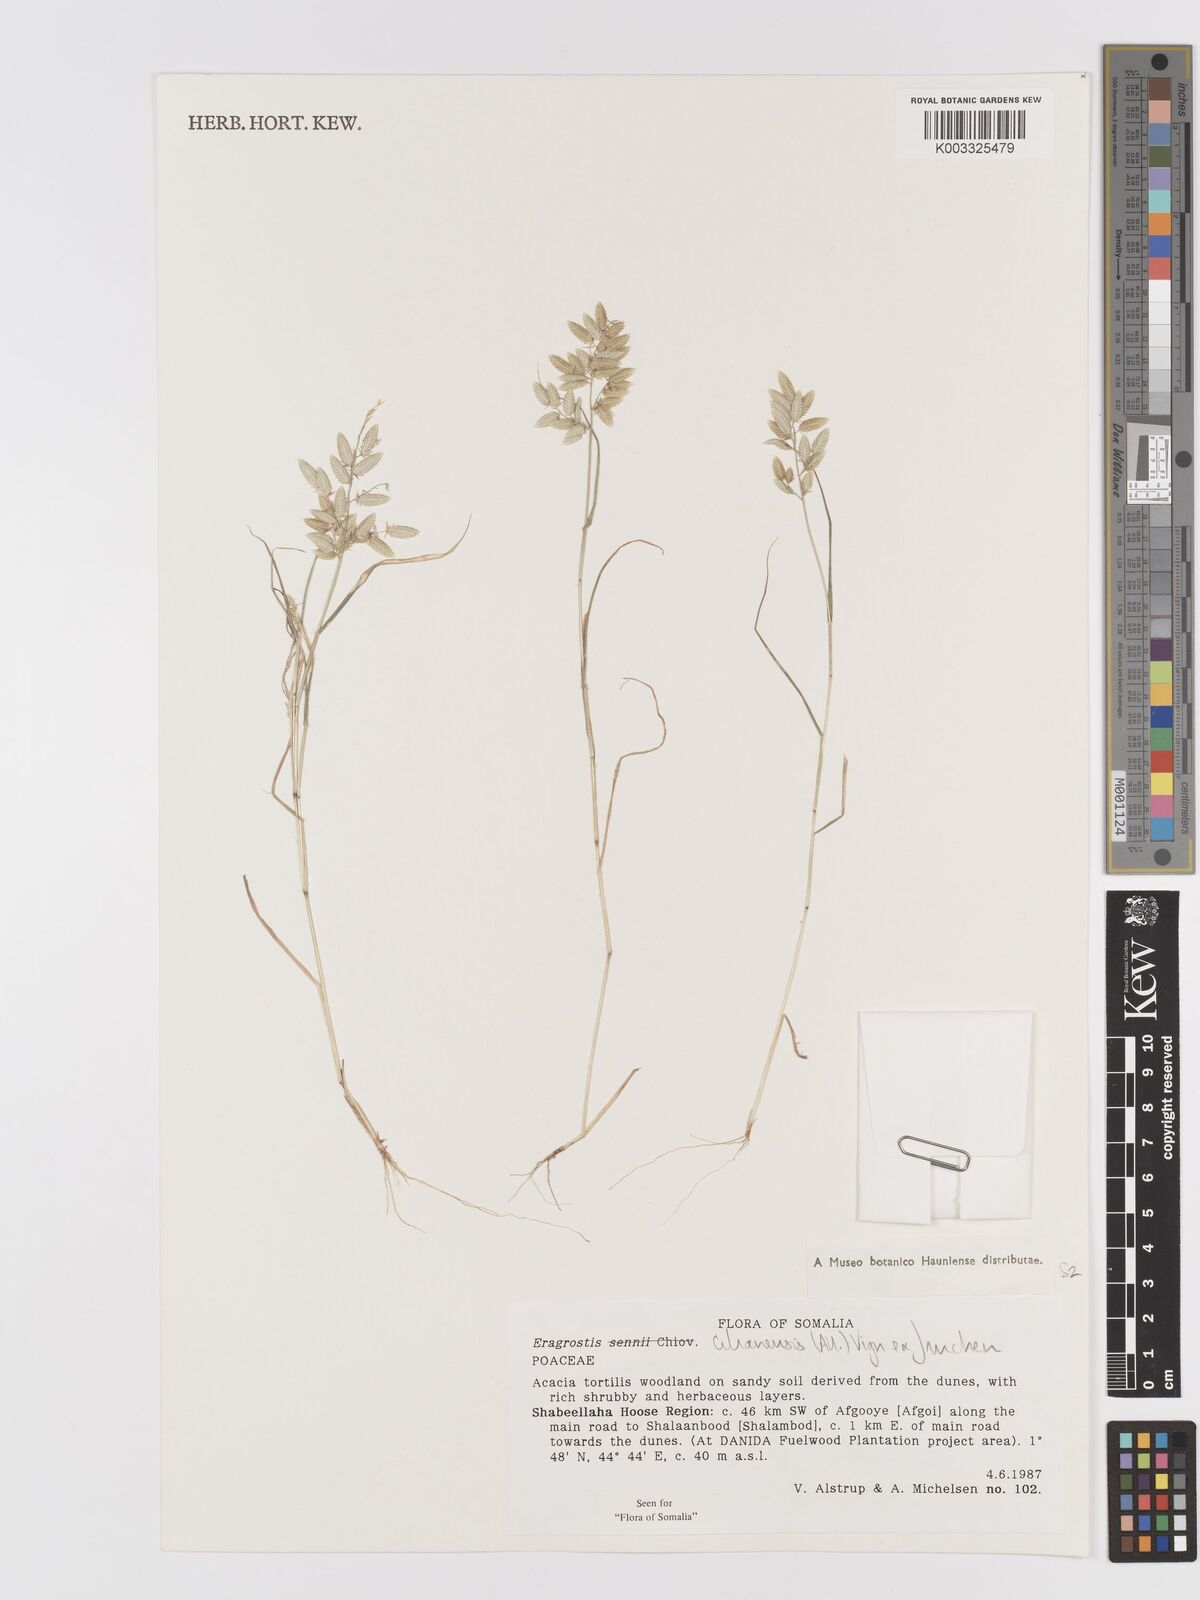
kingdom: Plantae
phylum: Tracheophyta
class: Liliopsida
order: Poales
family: Poaceae
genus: Eragrostis
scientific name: Eragrostis cilianensis
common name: Stinkgrass
